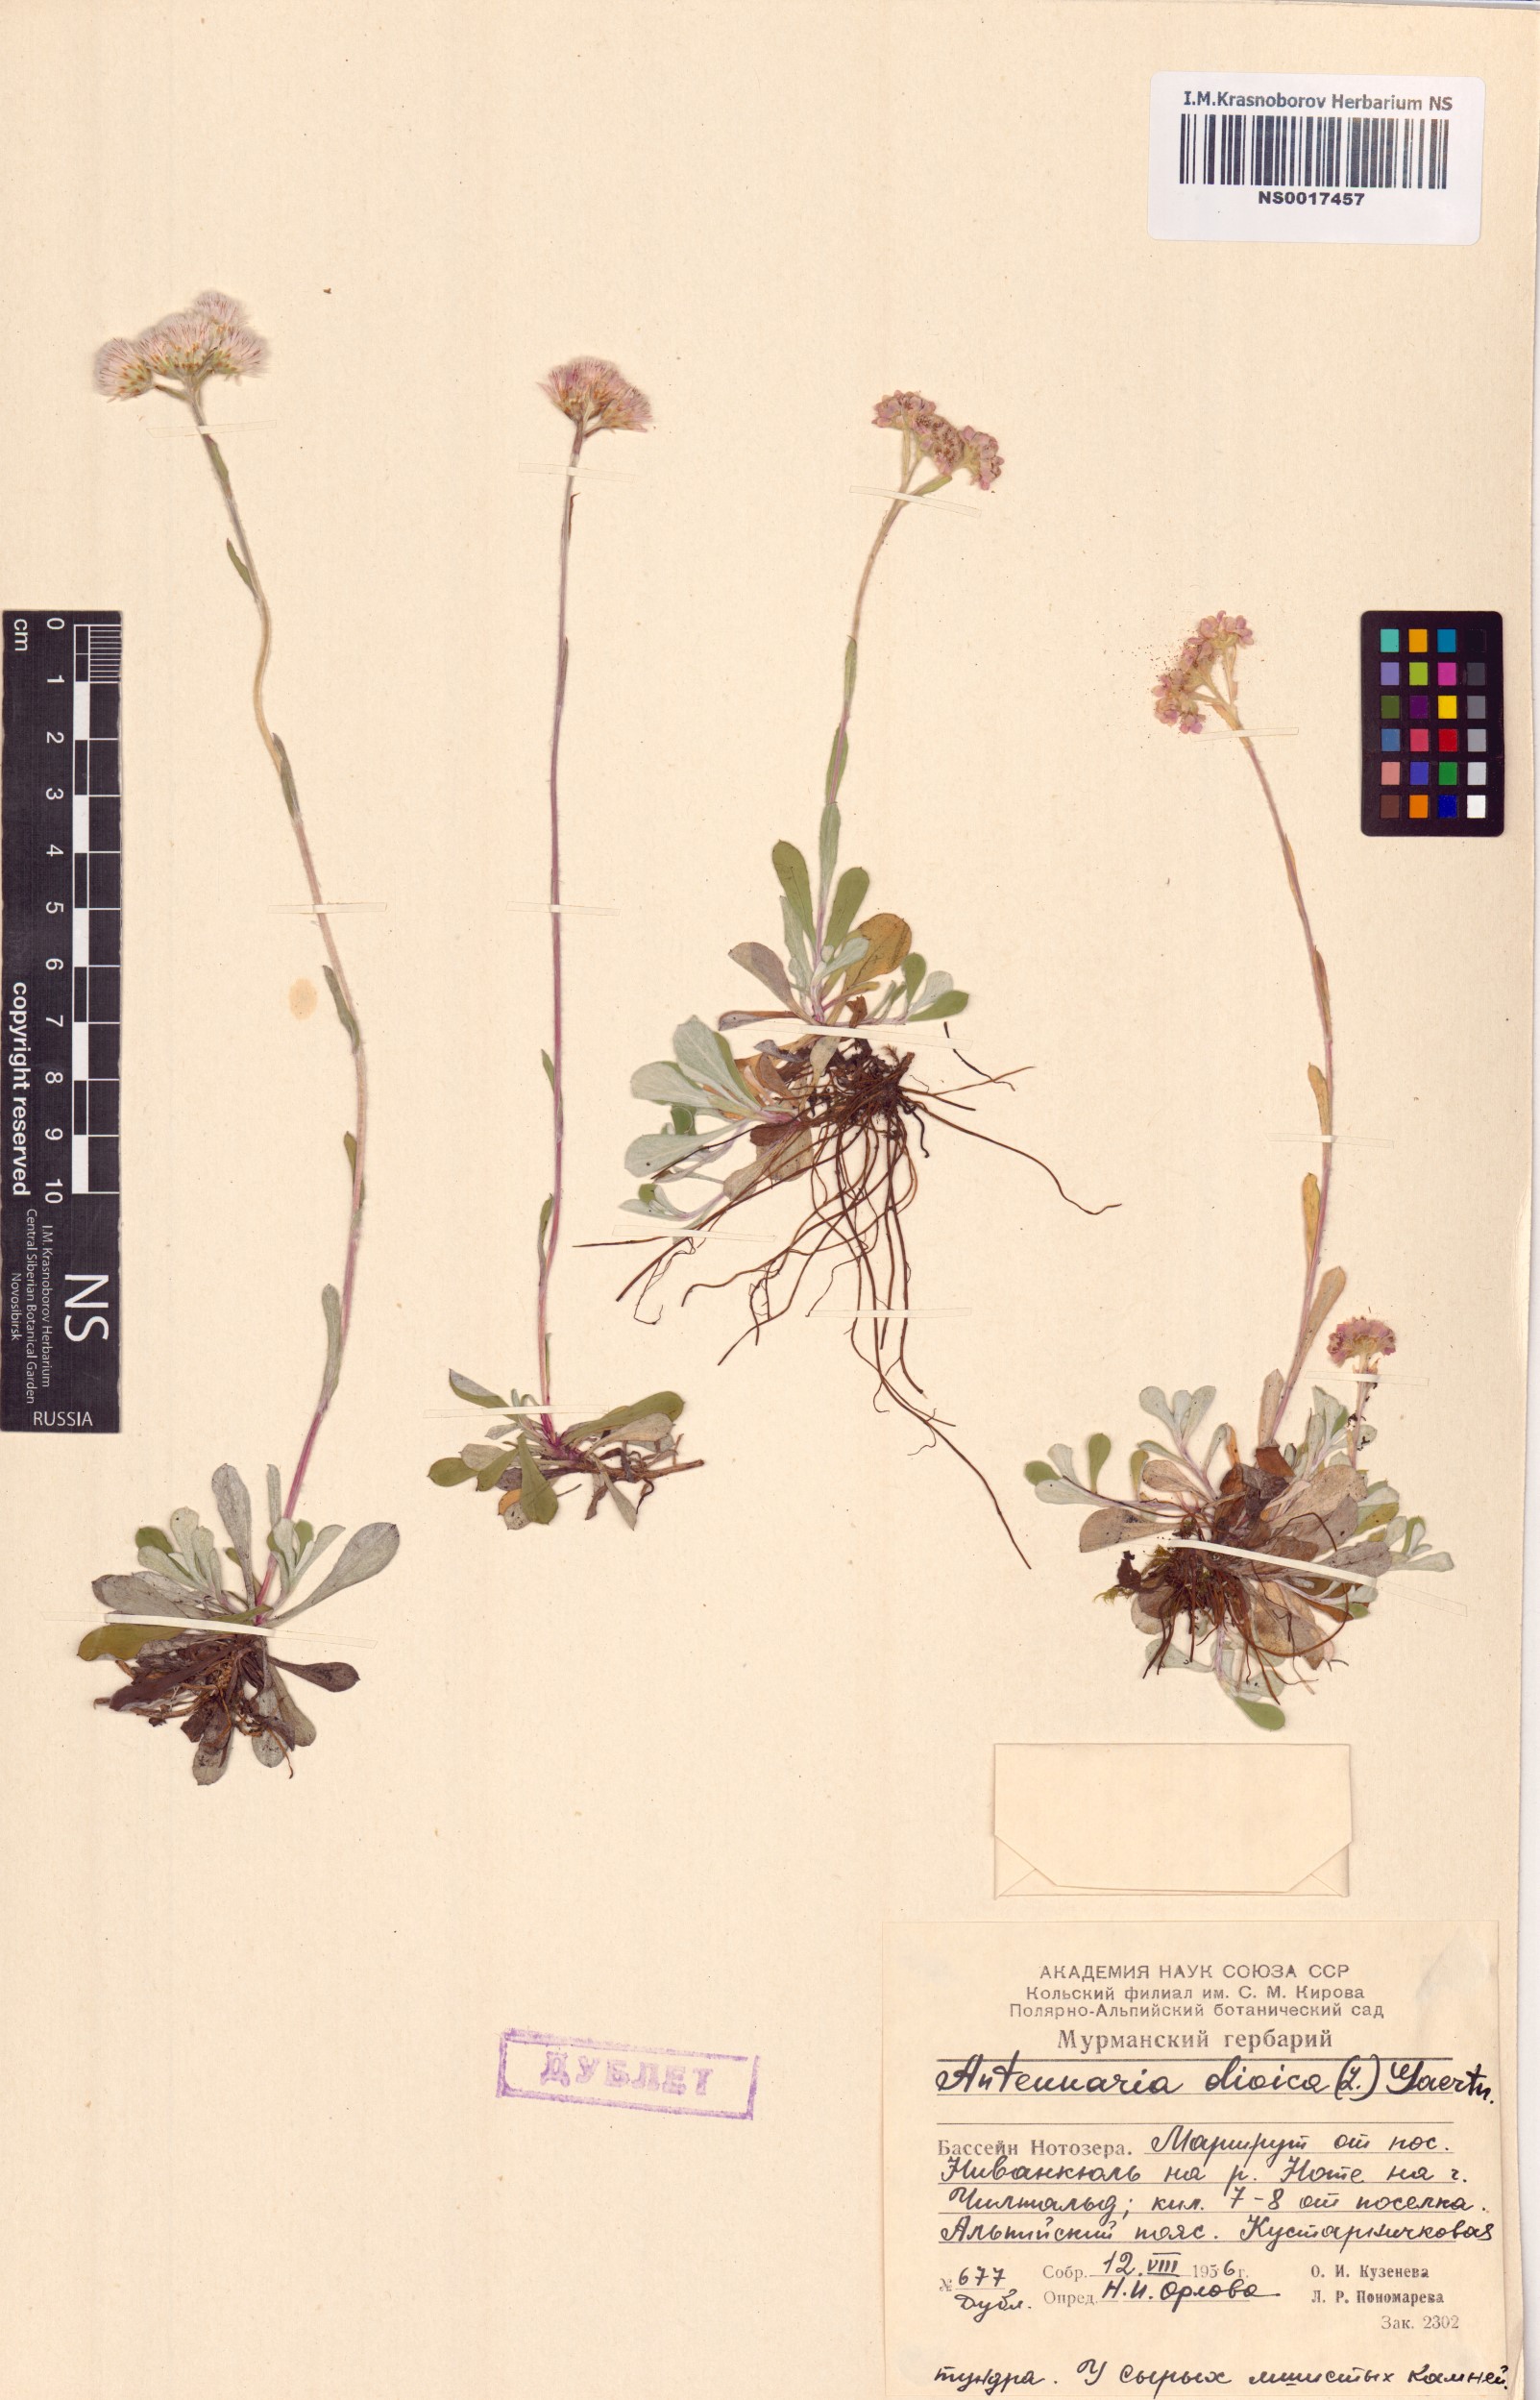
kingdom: Plantae
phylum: Tracheophyta
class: Magnoliopsida
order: Asterales
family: Asteraceae
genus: Antennaria
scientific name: Antennaria dioica
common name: Mountain everlasting
